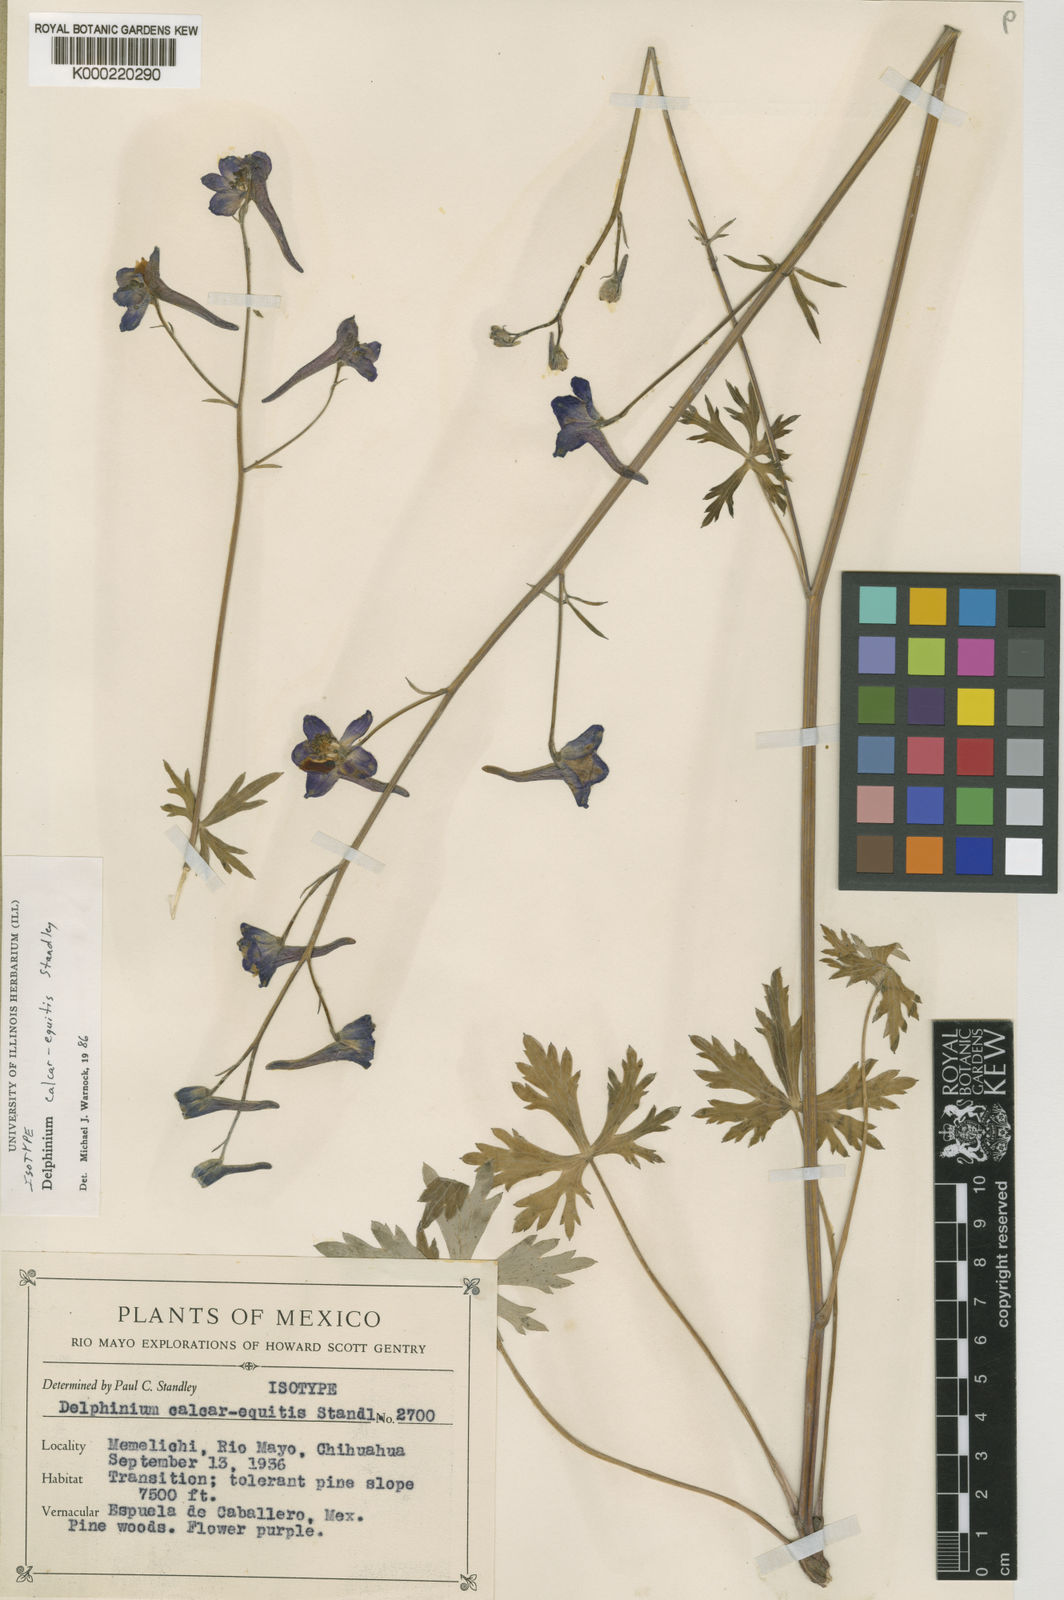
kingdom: Plantae
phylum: Tracheophyta
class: Magnoliopsida
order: Ranunculales
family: Ranunculaceae
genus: Delphinium
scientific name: Delphinium calcar-equitis
